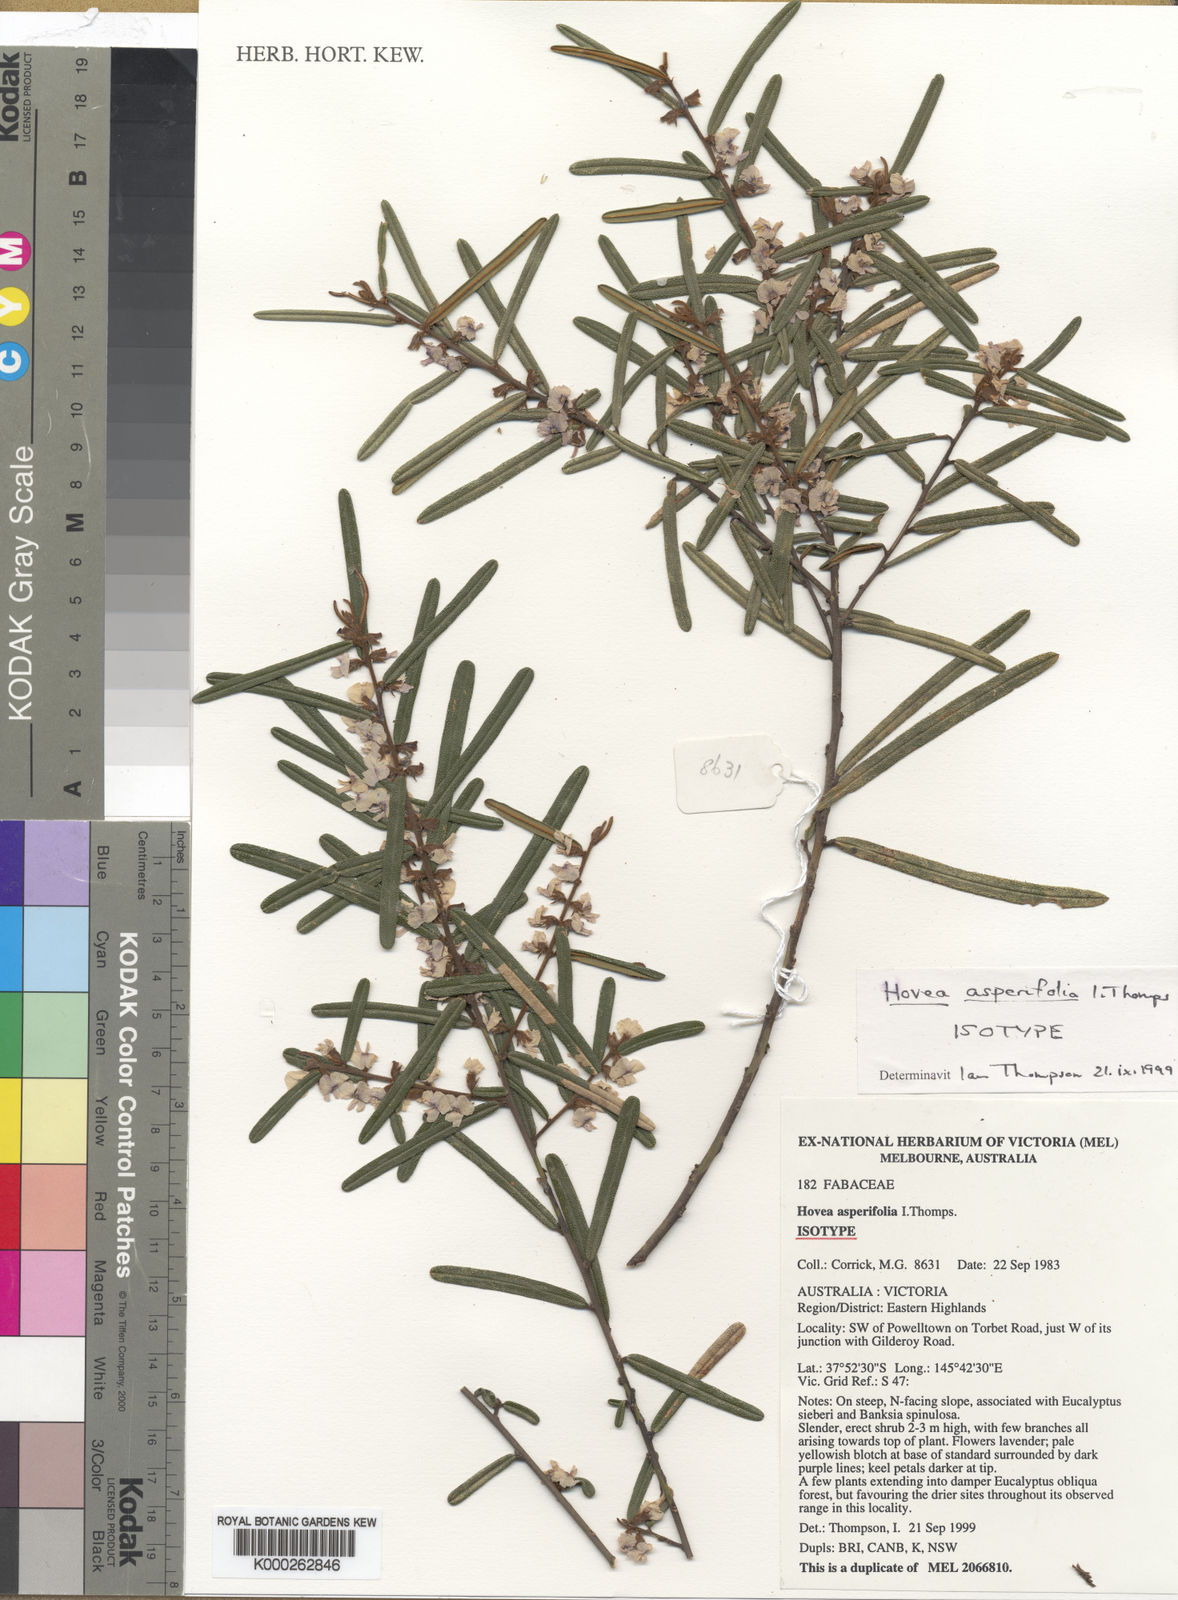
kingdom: Plantae
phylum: Tracheophyta
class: Magnoliopsida
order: Fabales
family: Fabaceae
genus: Hovea
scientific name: Hovea asperifolia
